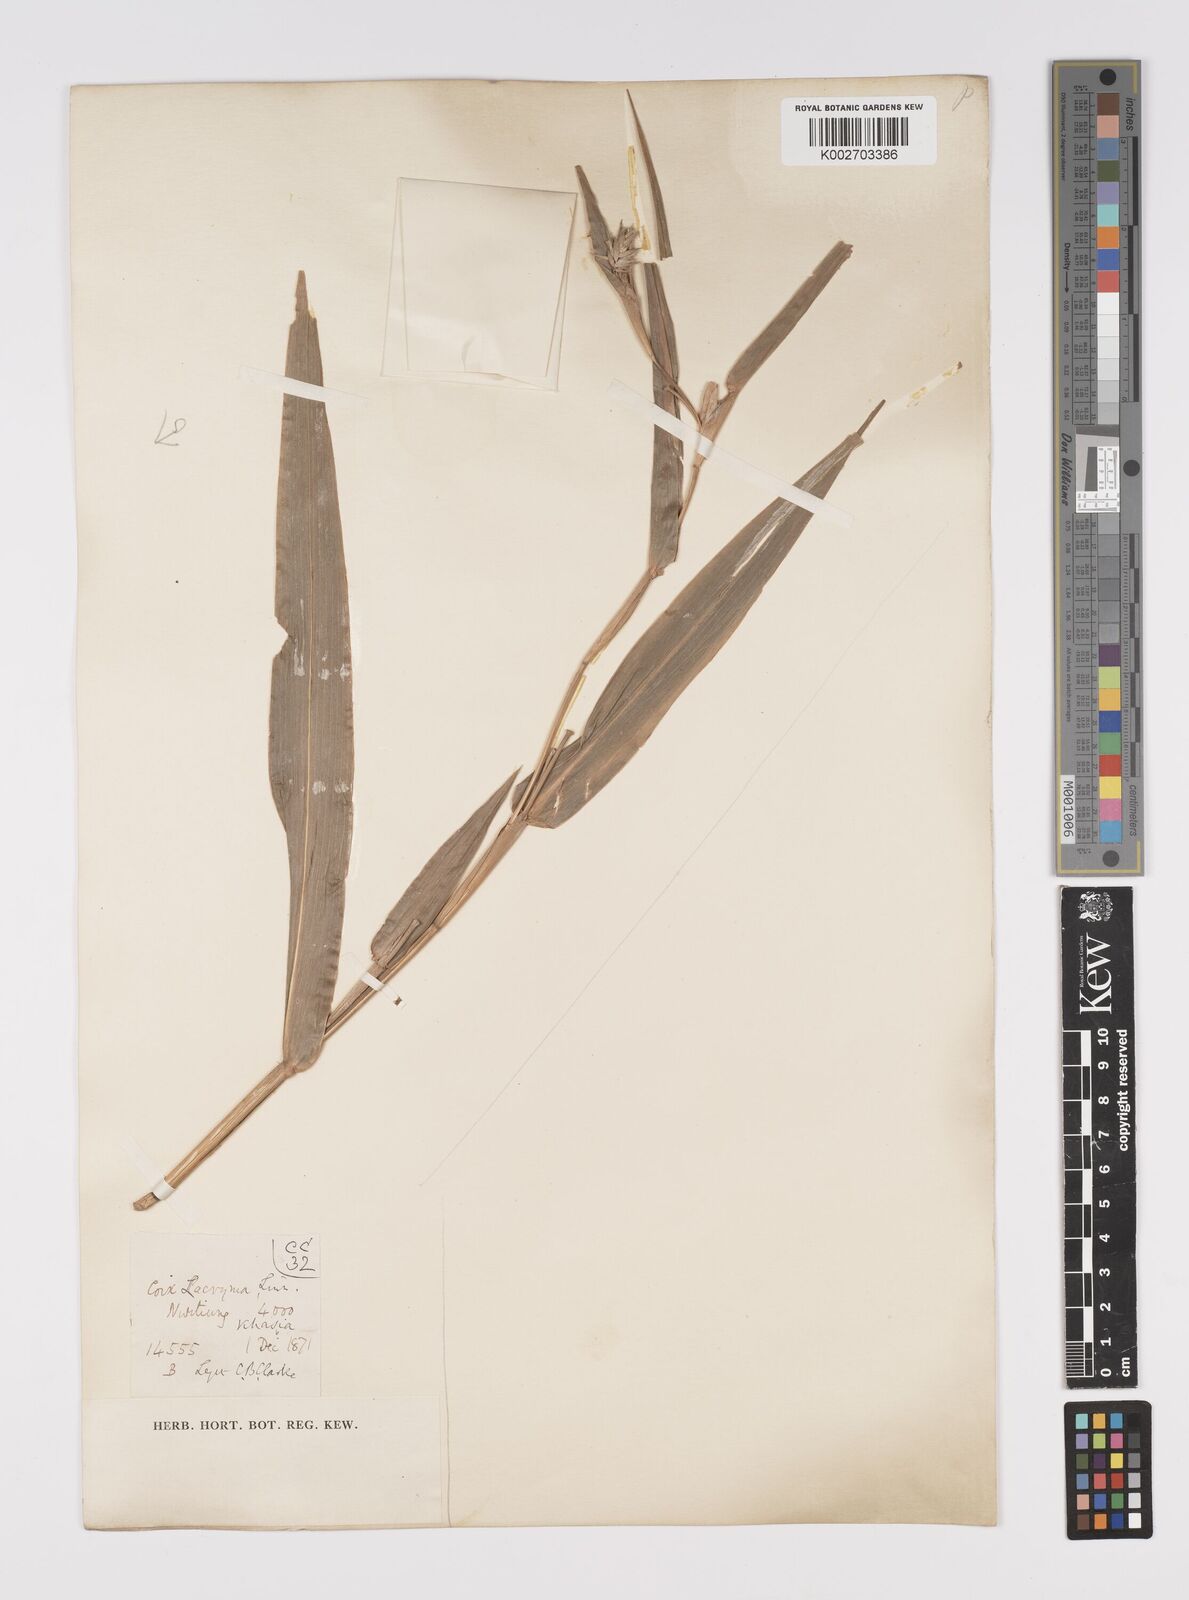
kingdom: Plantae
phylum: Tracheophyta
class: Liliopsida
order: Poales
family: Poaceae
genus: Coix
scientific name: Coix lacryma-jobi
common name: Job's tears
